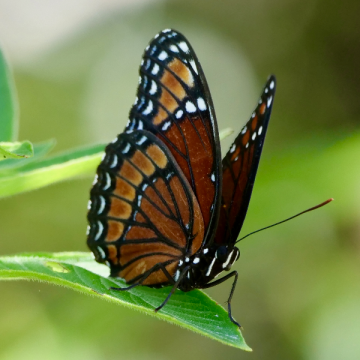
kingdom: Animalia
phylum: Arthropoda
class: Insecta
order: Lepidoptera
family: Nymphalidae
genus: Limenitis
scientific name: Limenitis archippus
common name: Viceroy
